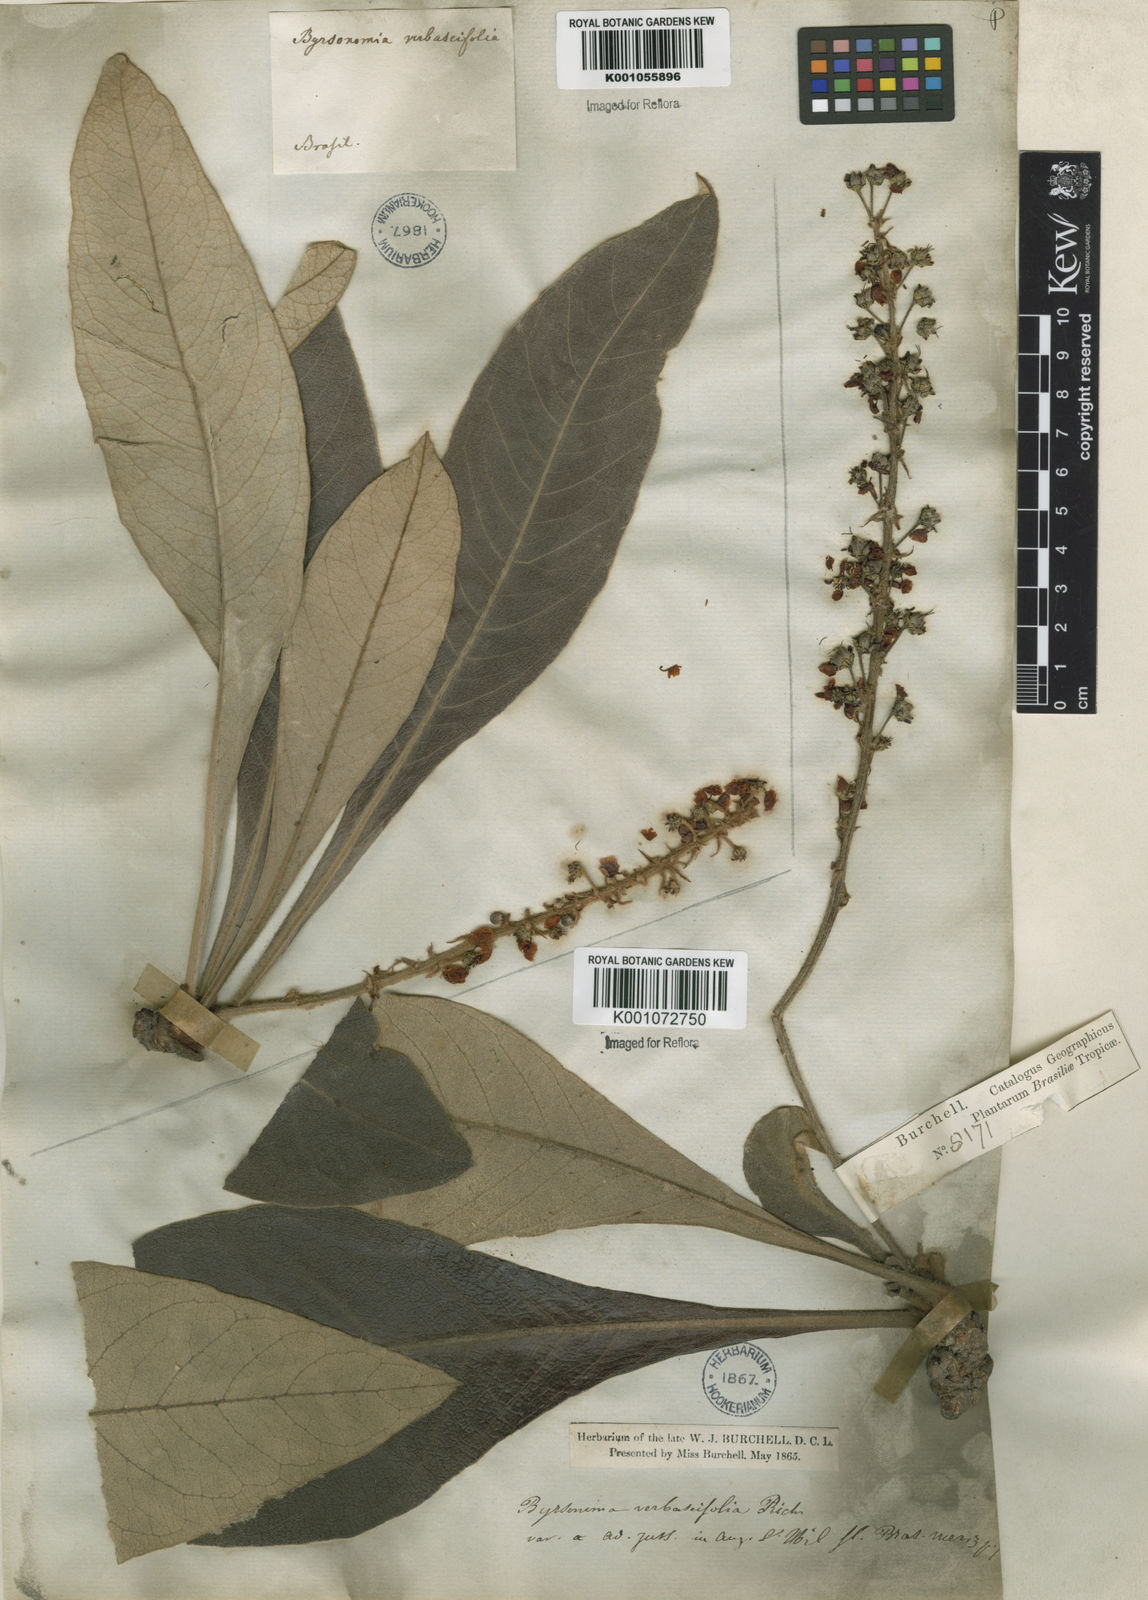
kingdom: Plantae
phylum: Tracheophyta
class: Magnoliopsida
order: Malpighiales
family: Malpighiaceae
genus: Byrsonima
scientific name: Byrsonima verbascifolia
